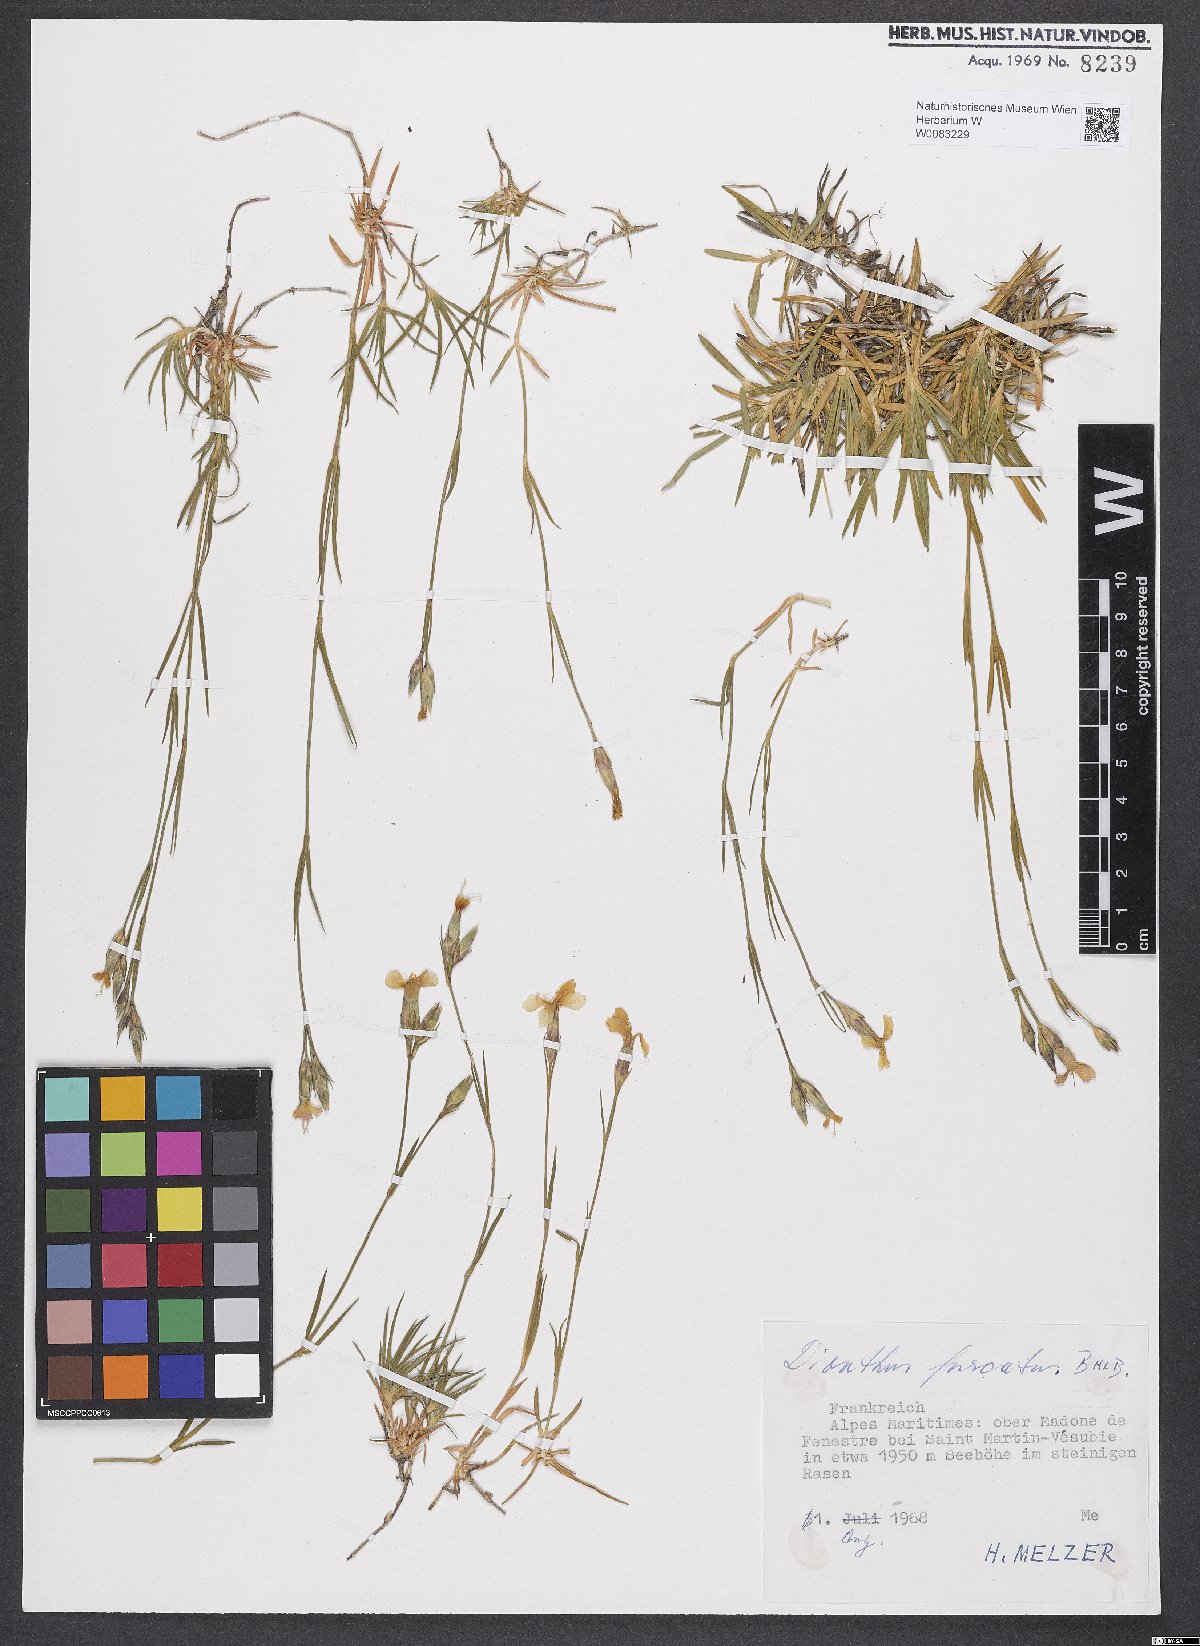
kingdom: Plantae
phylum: Tracheophyta
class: Magnoliopsida
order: Caryophyllales
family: Caryophyllaceae
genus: Dianthus
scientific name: Dianthus furcatus
